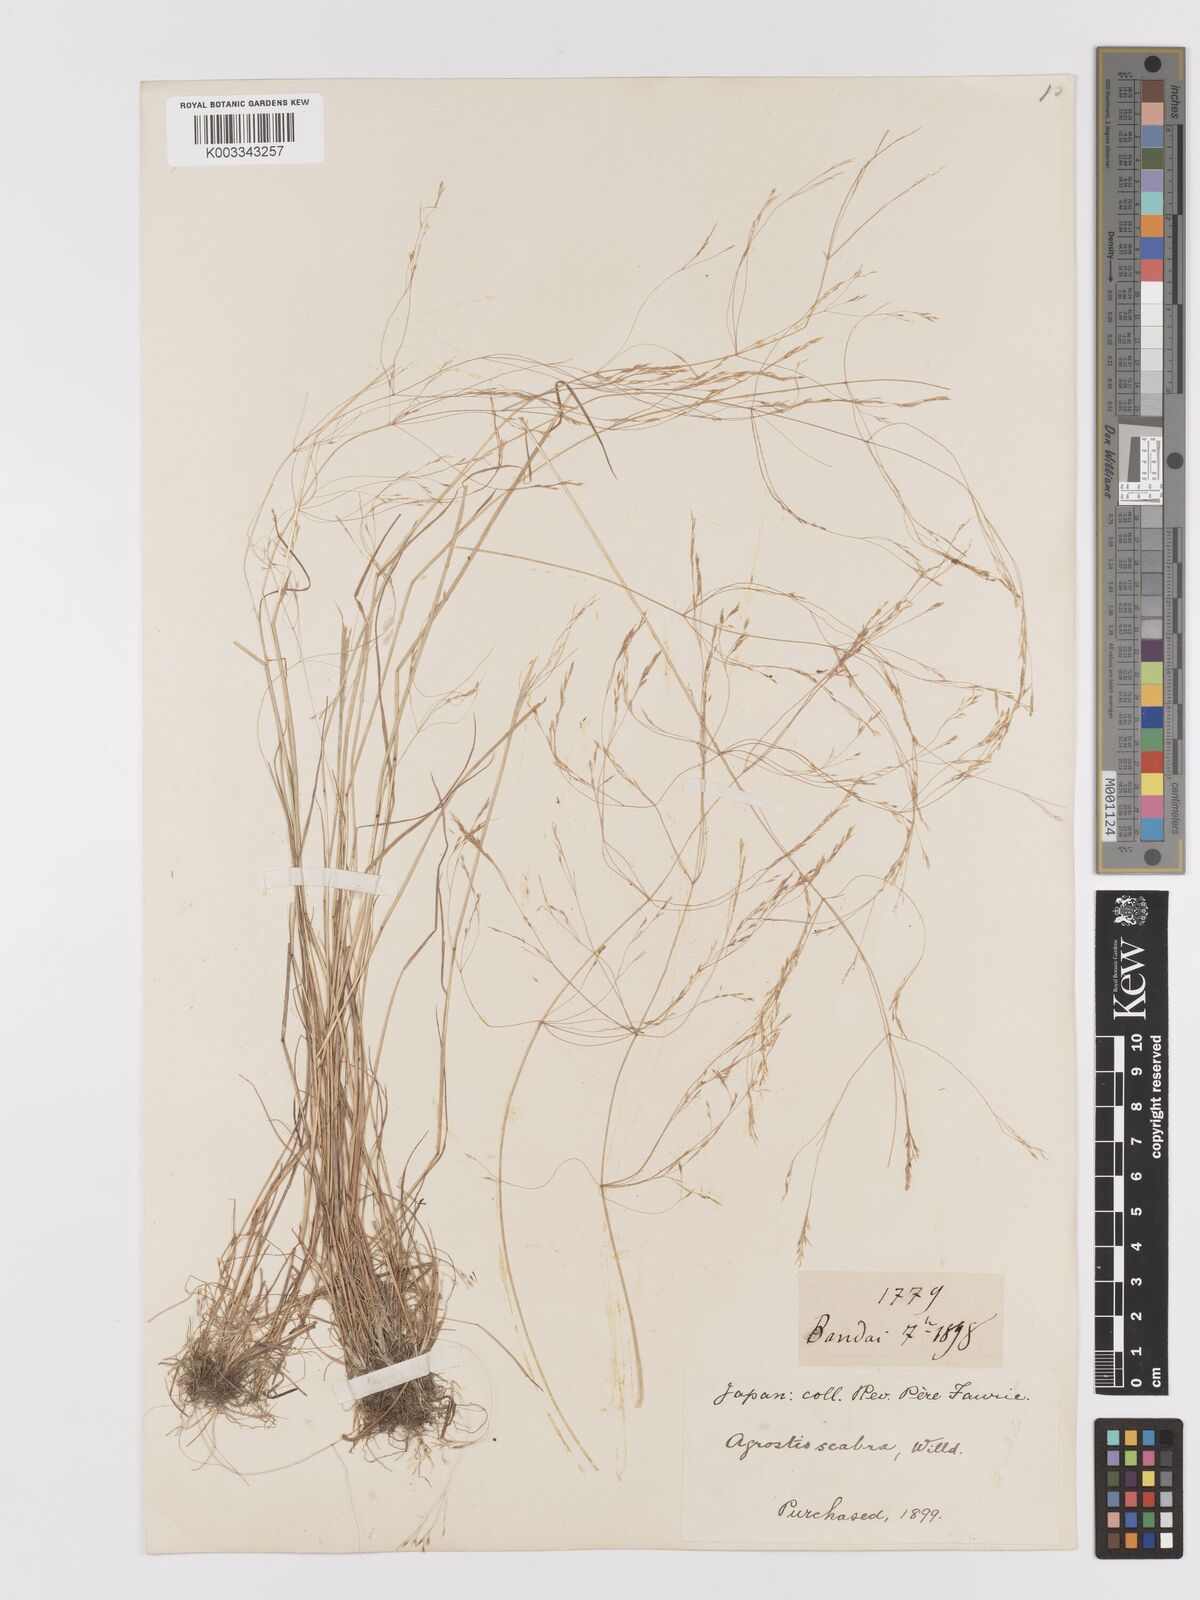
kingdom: Plantae
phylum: Tracheophyta
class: Liliopsida
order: Poales
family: Poaceae
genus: Agrostis
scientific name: Agrostis scabra
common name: Rough bent
